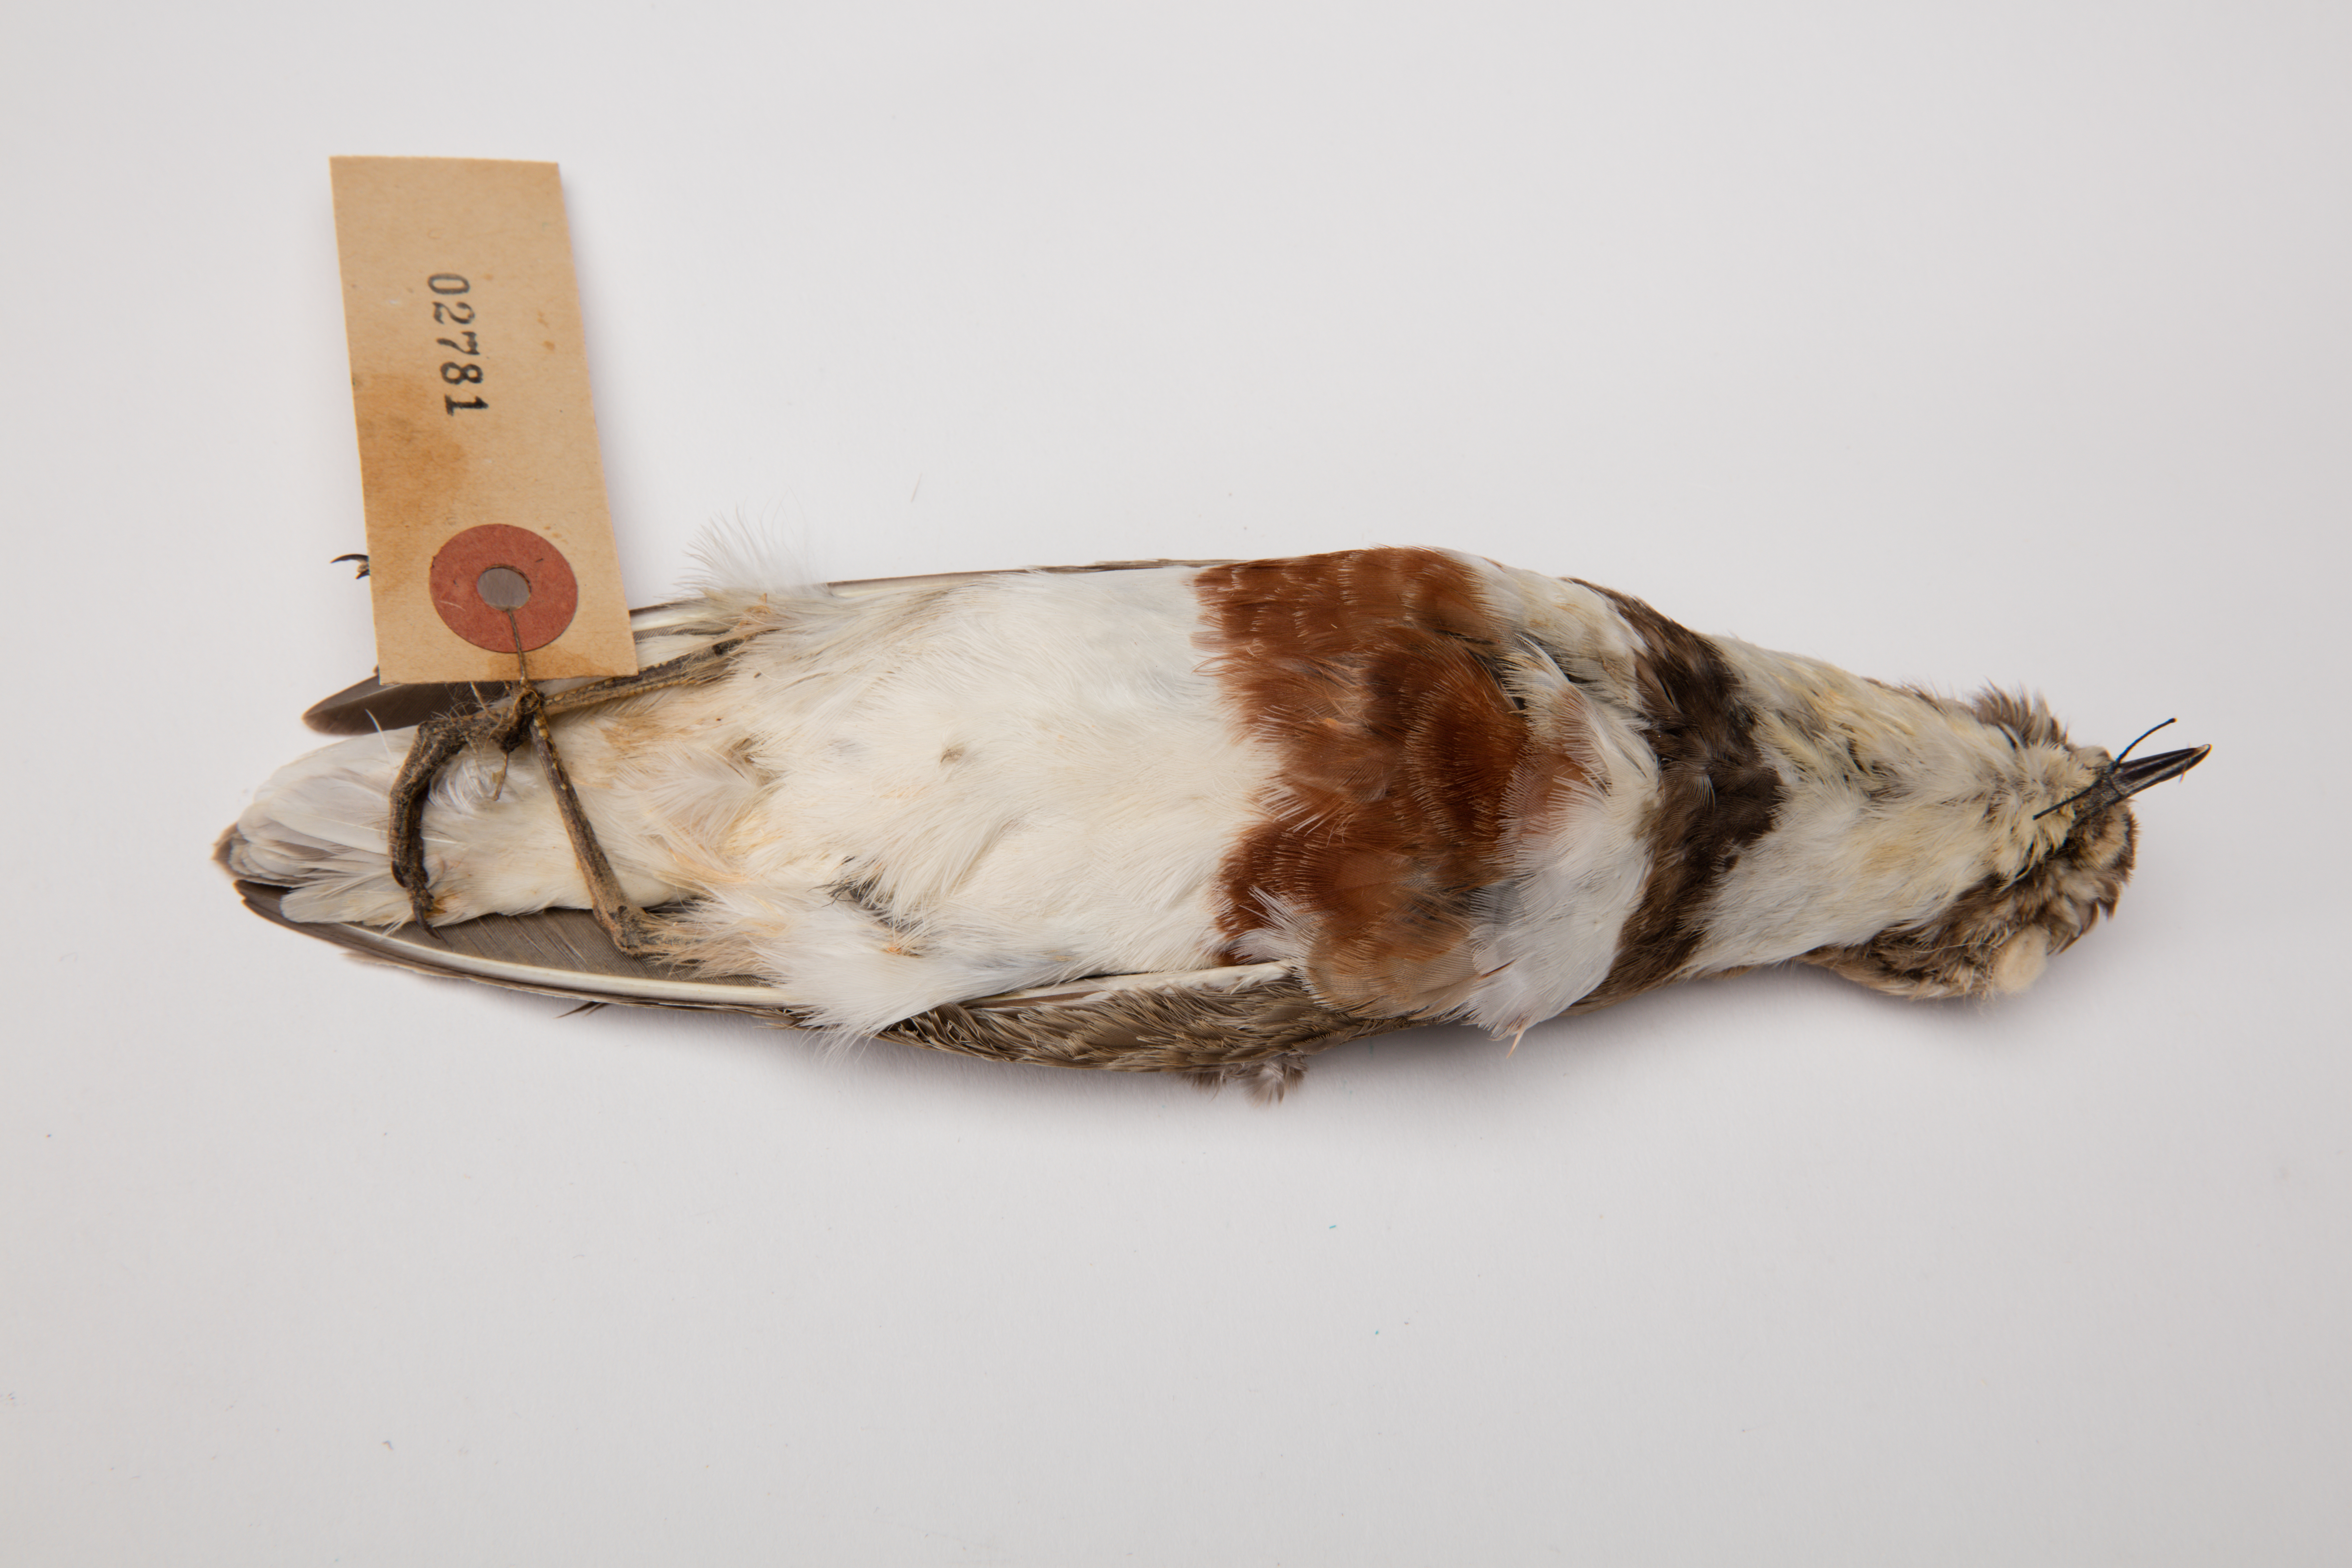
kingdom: Animalia
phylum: Chordata
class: Aves
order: Charadriiformes
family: Charadriidae
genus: Charadrius
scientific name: Charadrius bicinctus
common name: Double-banded plover
